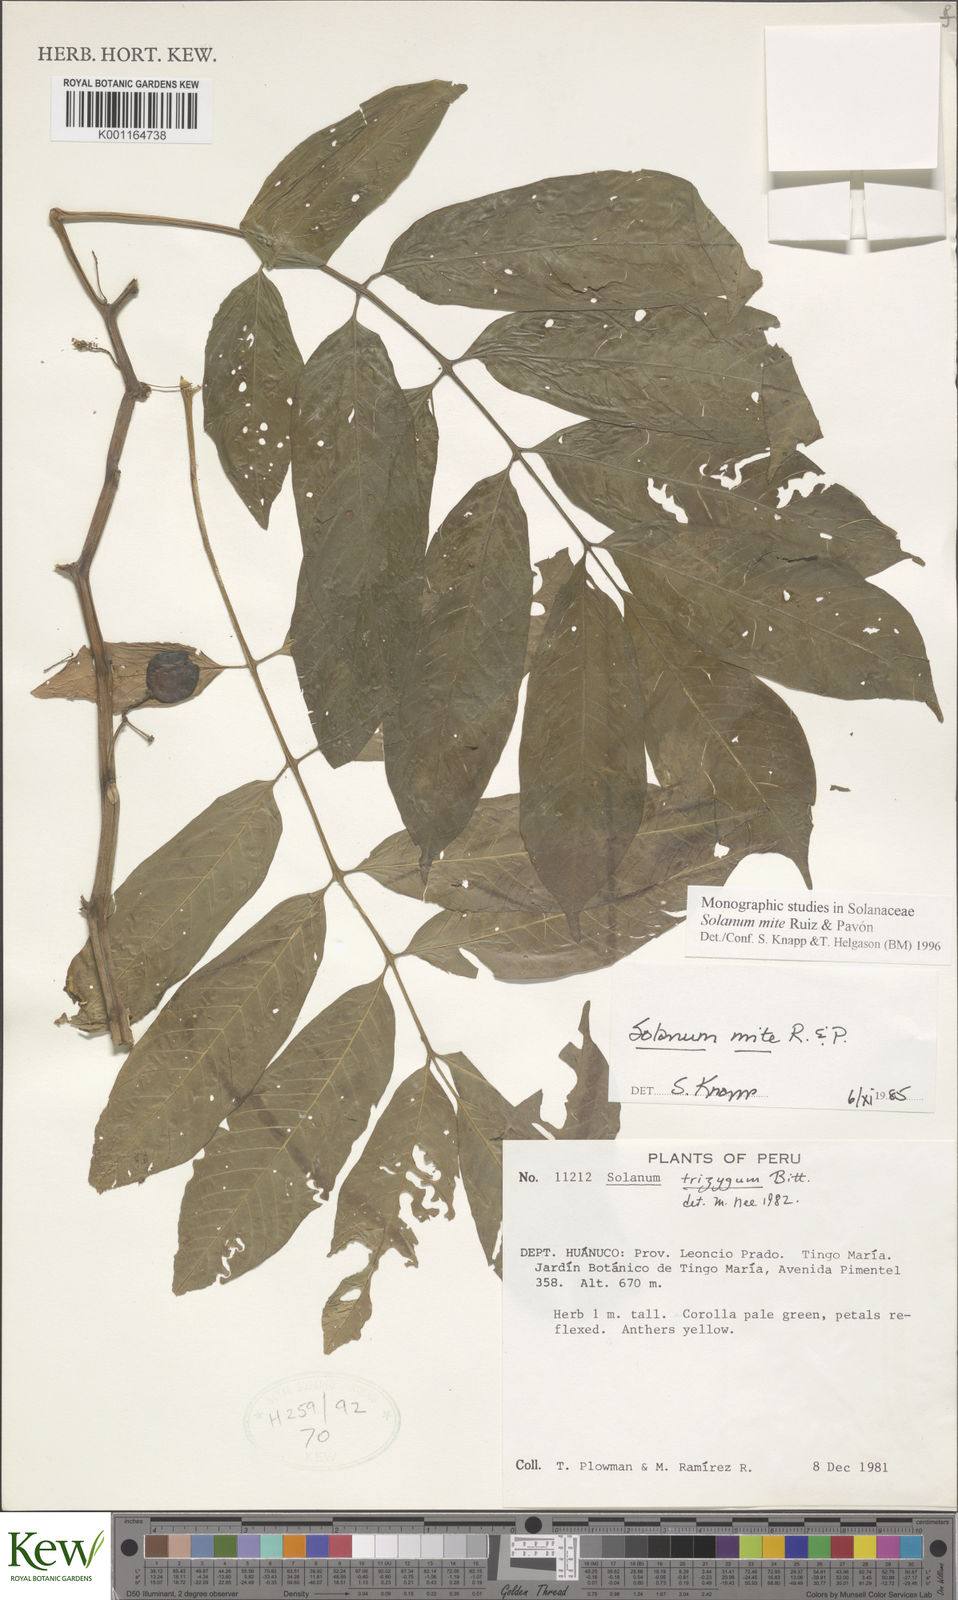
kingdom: Plantae
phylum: Tracheophyta
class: Magnoliopsida
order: Solanales
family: Solanaceae
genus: Solanum
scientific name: Solanum mite
